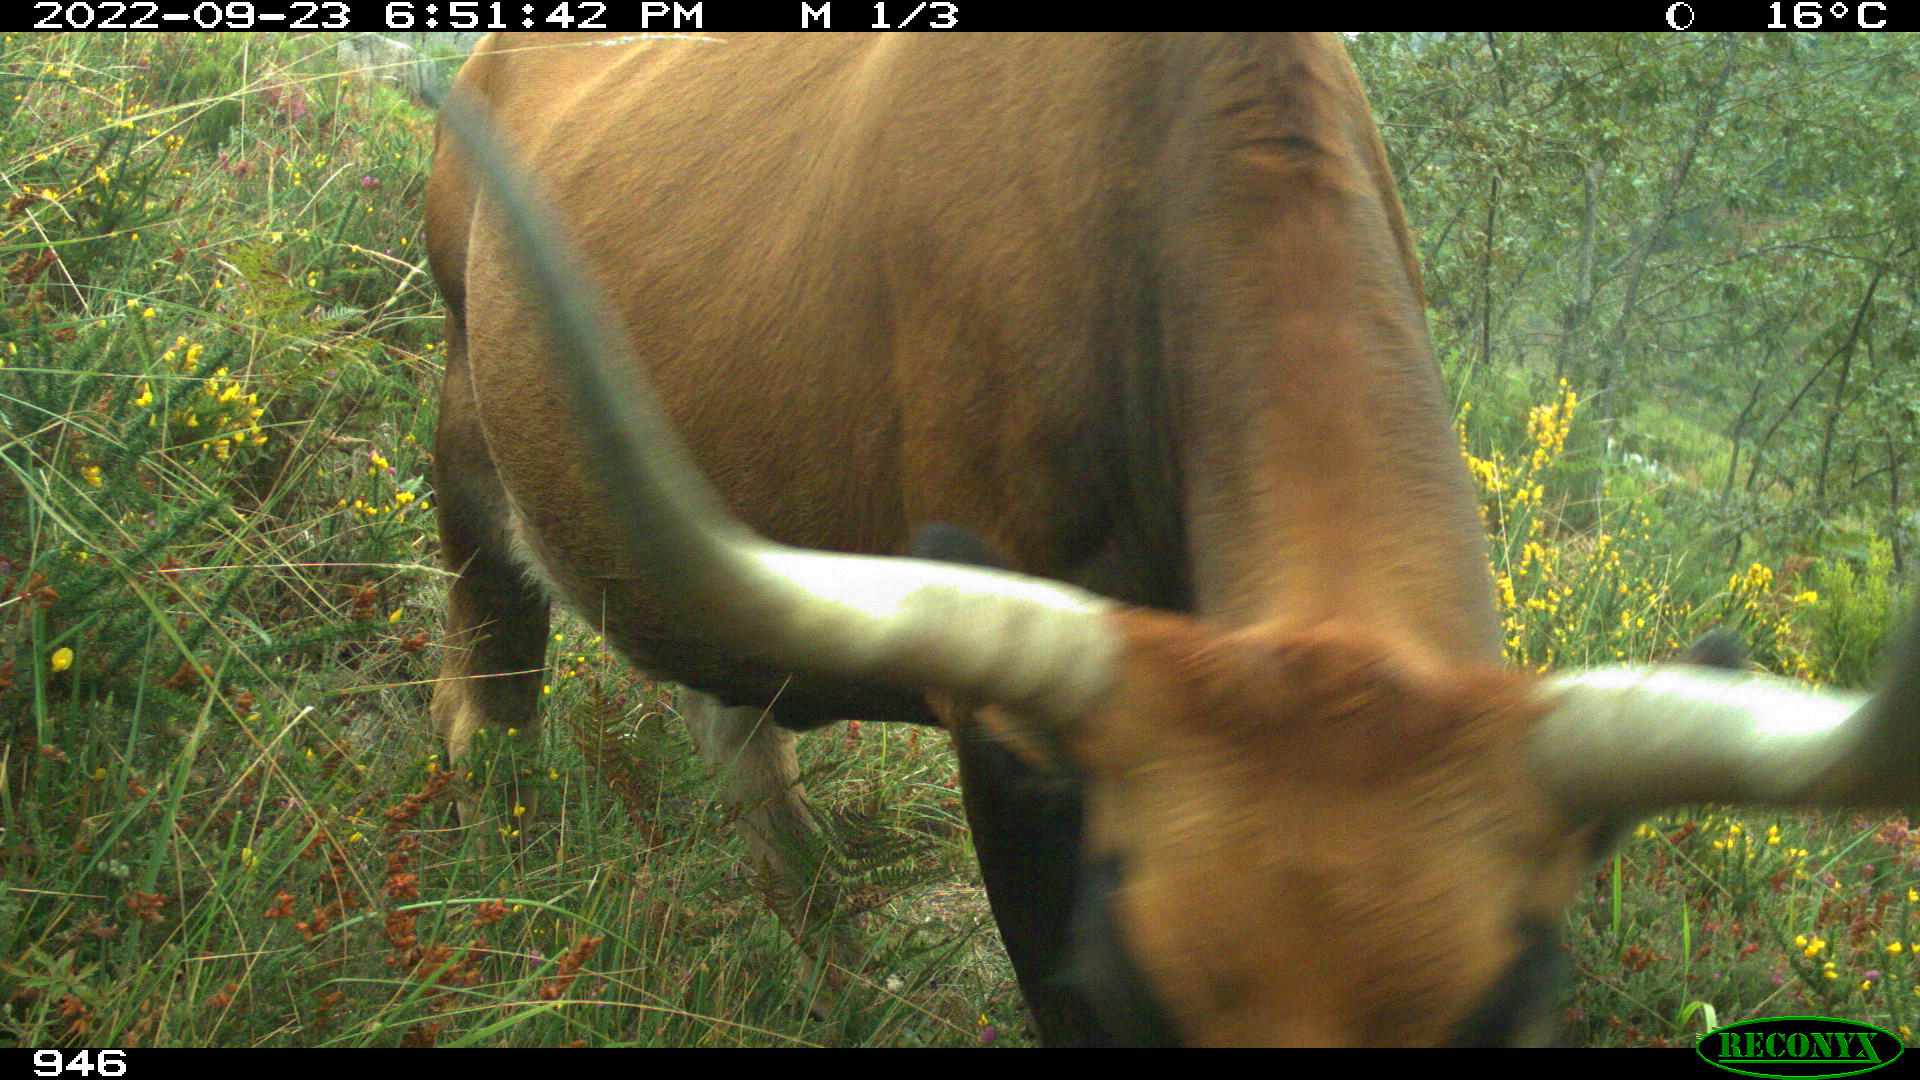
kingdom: Animalia
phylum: Chordata
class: Mammalia
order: Artiodactyla
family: Bovidae
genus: Bos
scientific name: Bos taurus
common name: Domesticated cattle
